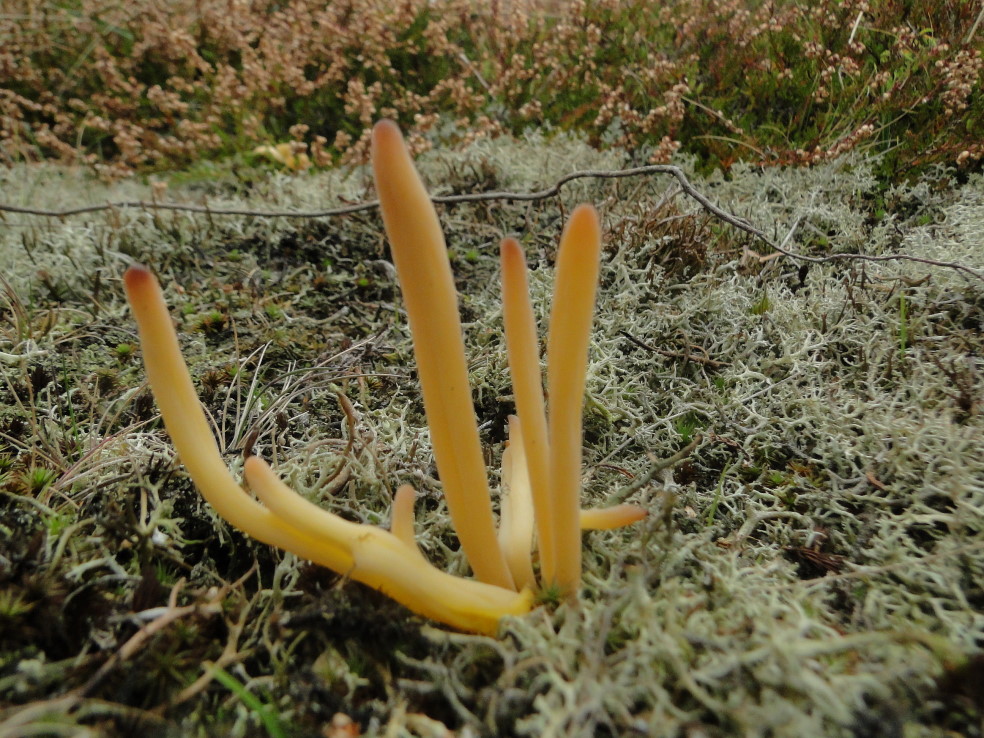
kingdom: Fungi
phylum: Basidiomycota
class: Agaricomycetes
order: Agaricales
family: Clavariaceae
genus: Clavaria
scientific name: Clavaria argillacea
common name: lerfarvet køllesvamp
